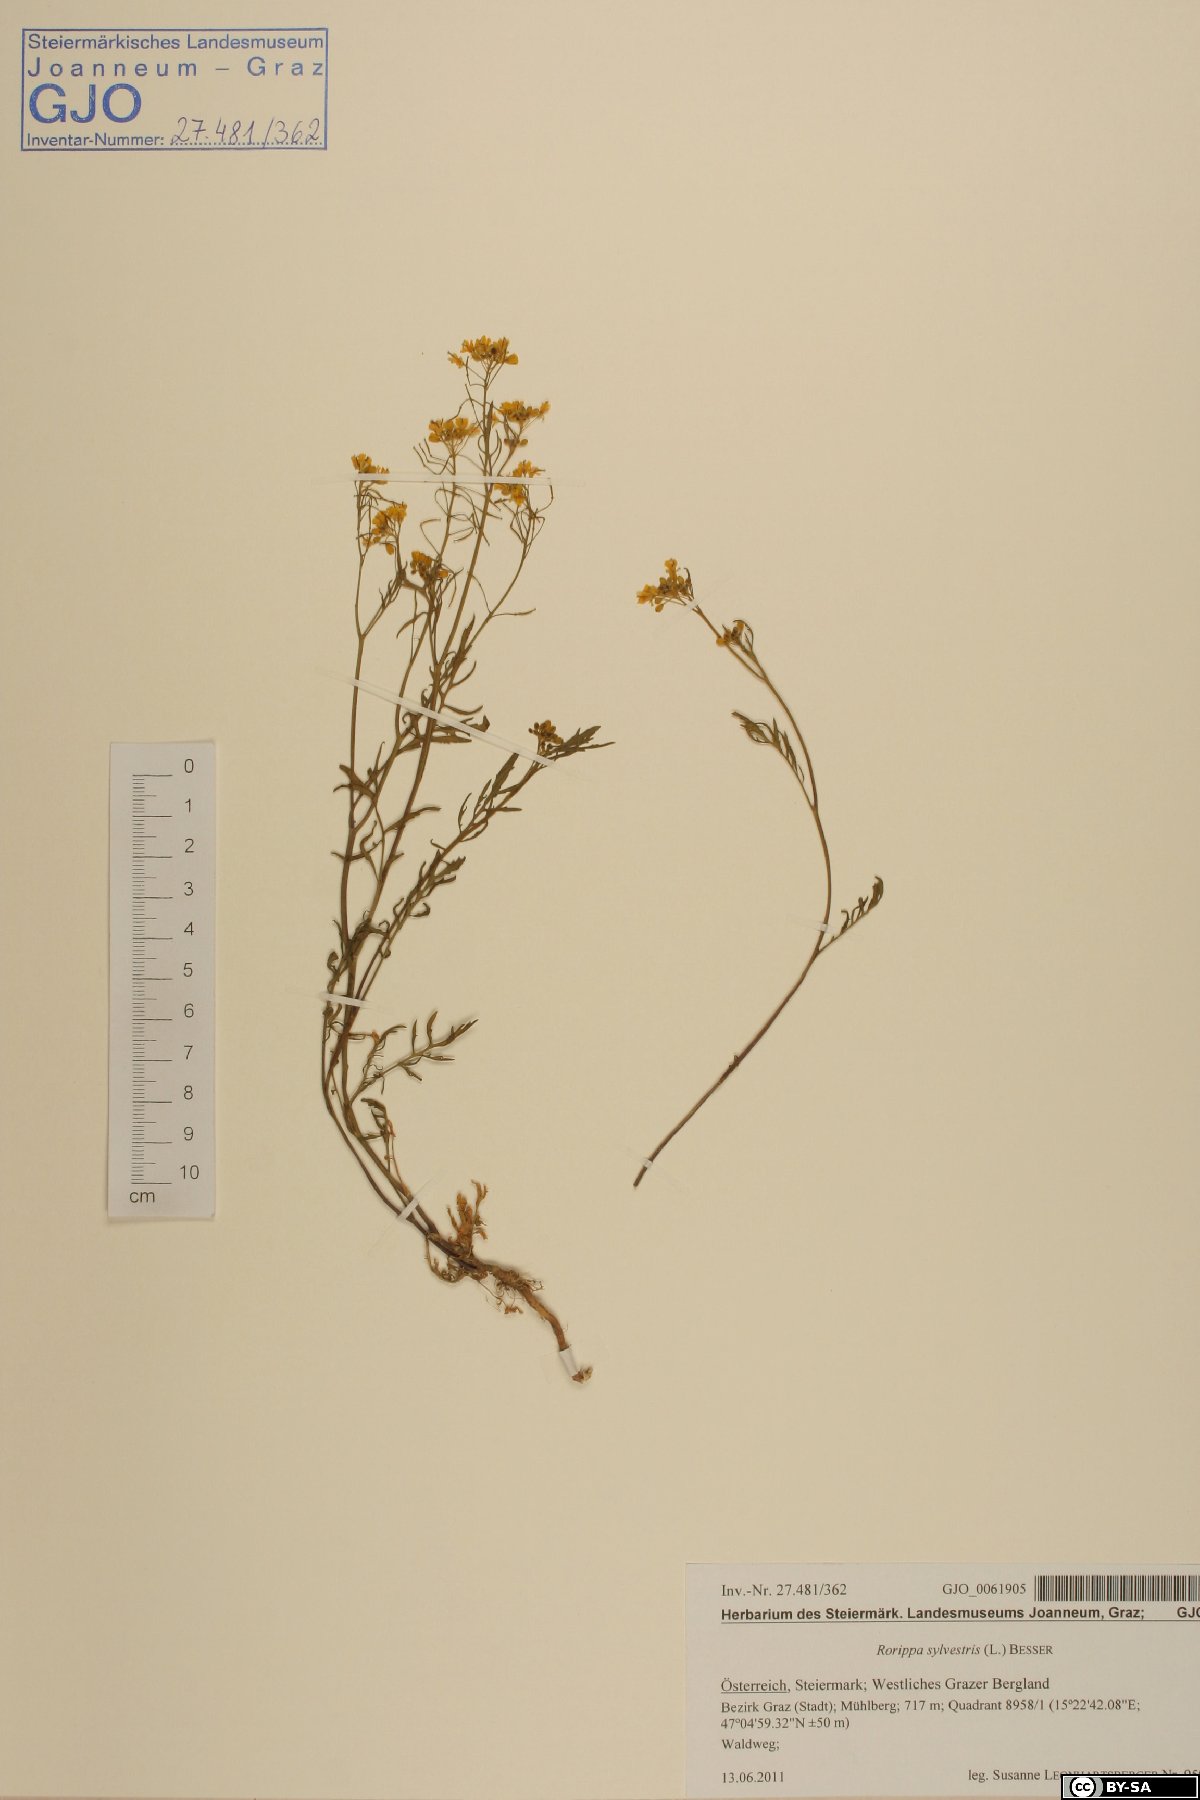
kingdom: Plantae
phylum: Tracheophyta
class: Magnoliopsida
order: Brassicales
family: Brassicaceae
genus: Rorippa
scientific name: Rorippa sylvestris
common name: Creeping yellowcress
